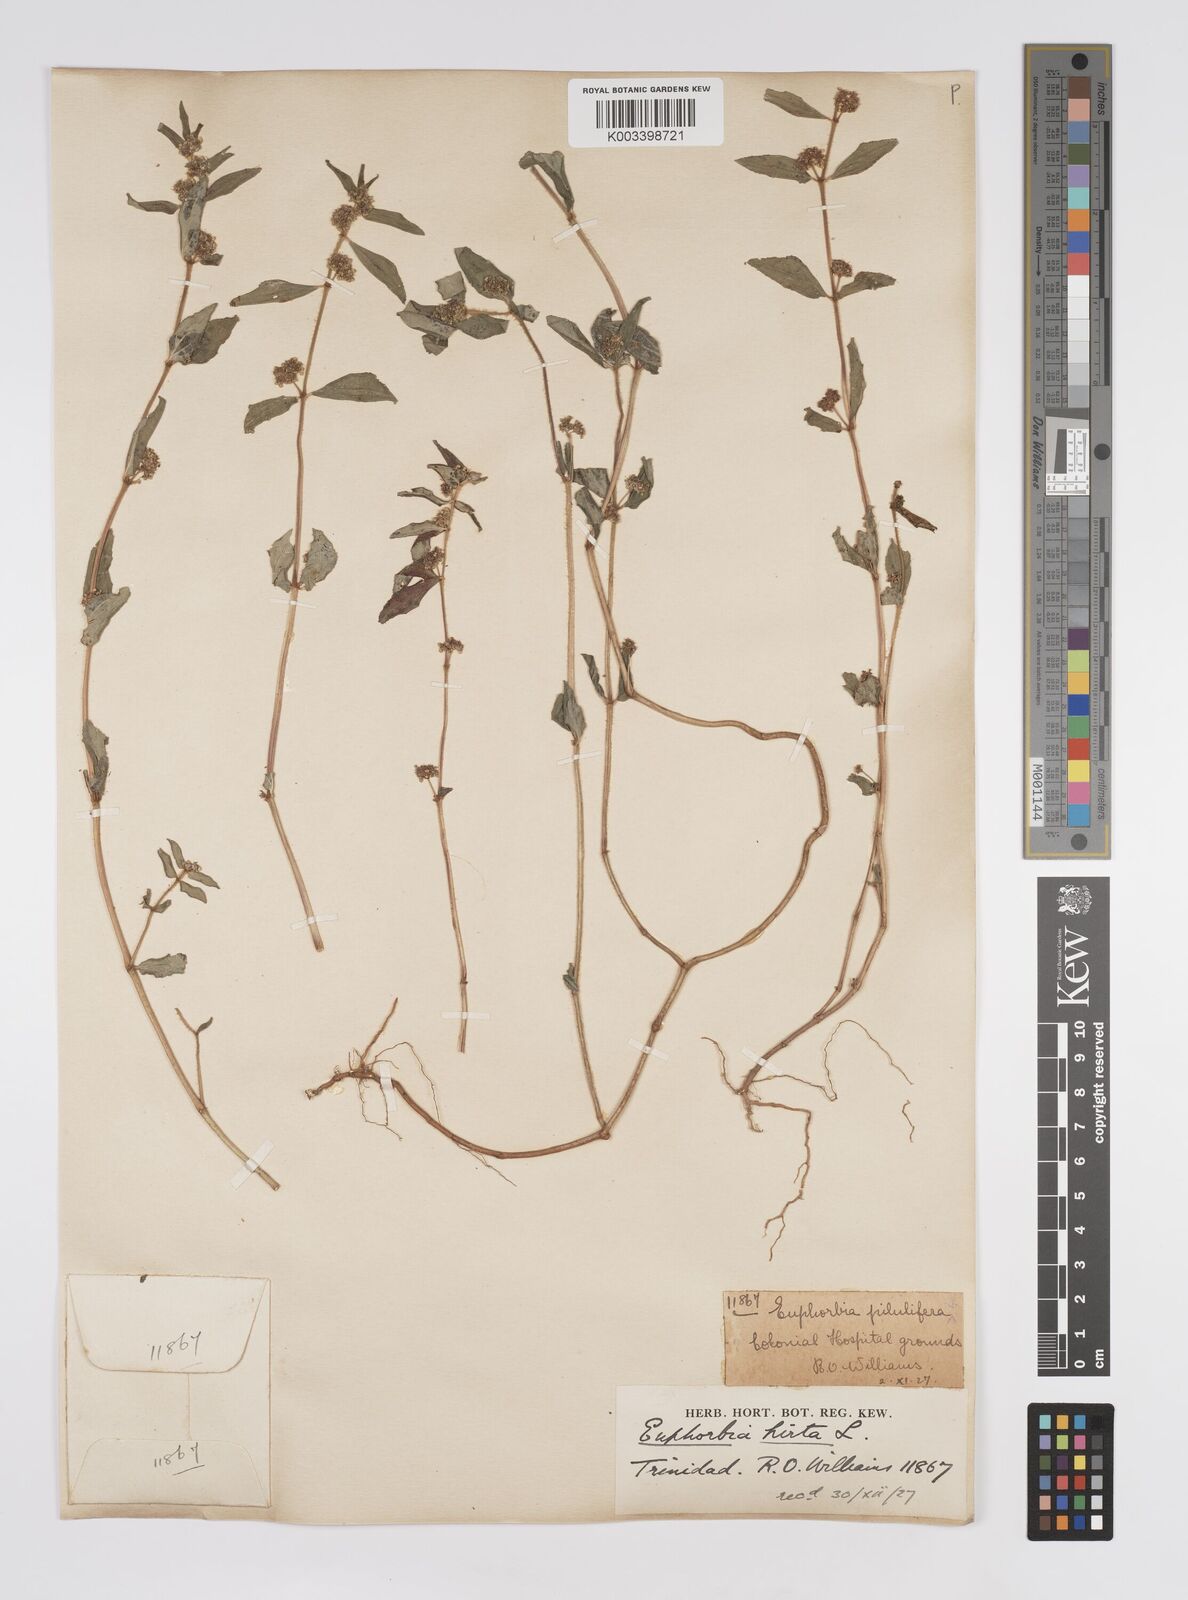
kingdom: Plantae
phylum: Tracheophyta
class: Magnoliopsida
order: Malpighiales
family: Euphorbiaceae
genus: Euphorbia
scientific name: Euphorbia hirta
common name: Pillpod sandmat
